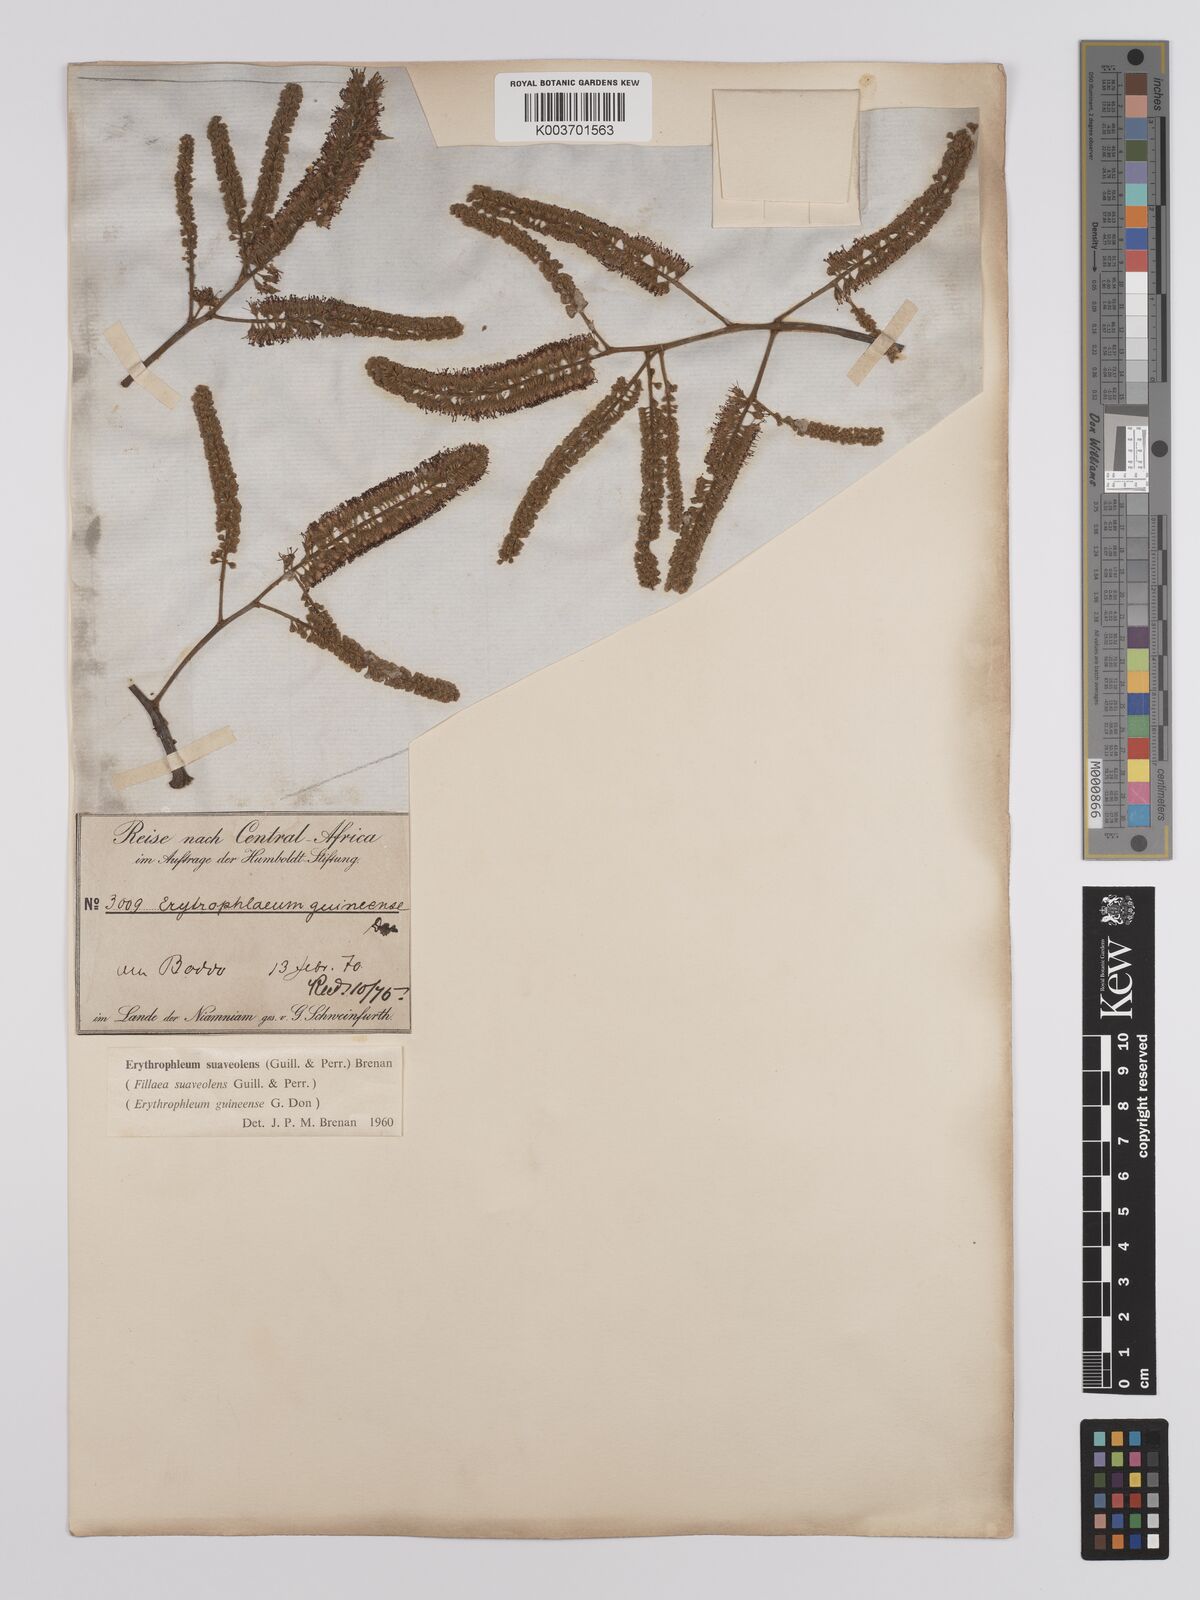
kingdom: Plantae
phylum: Tracheophyta
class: Magnoliopsida
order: Fabales
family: Fabaceae
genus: Erythrophleum
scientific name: Erythrophleum suaveolens
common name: Ordeal tree
